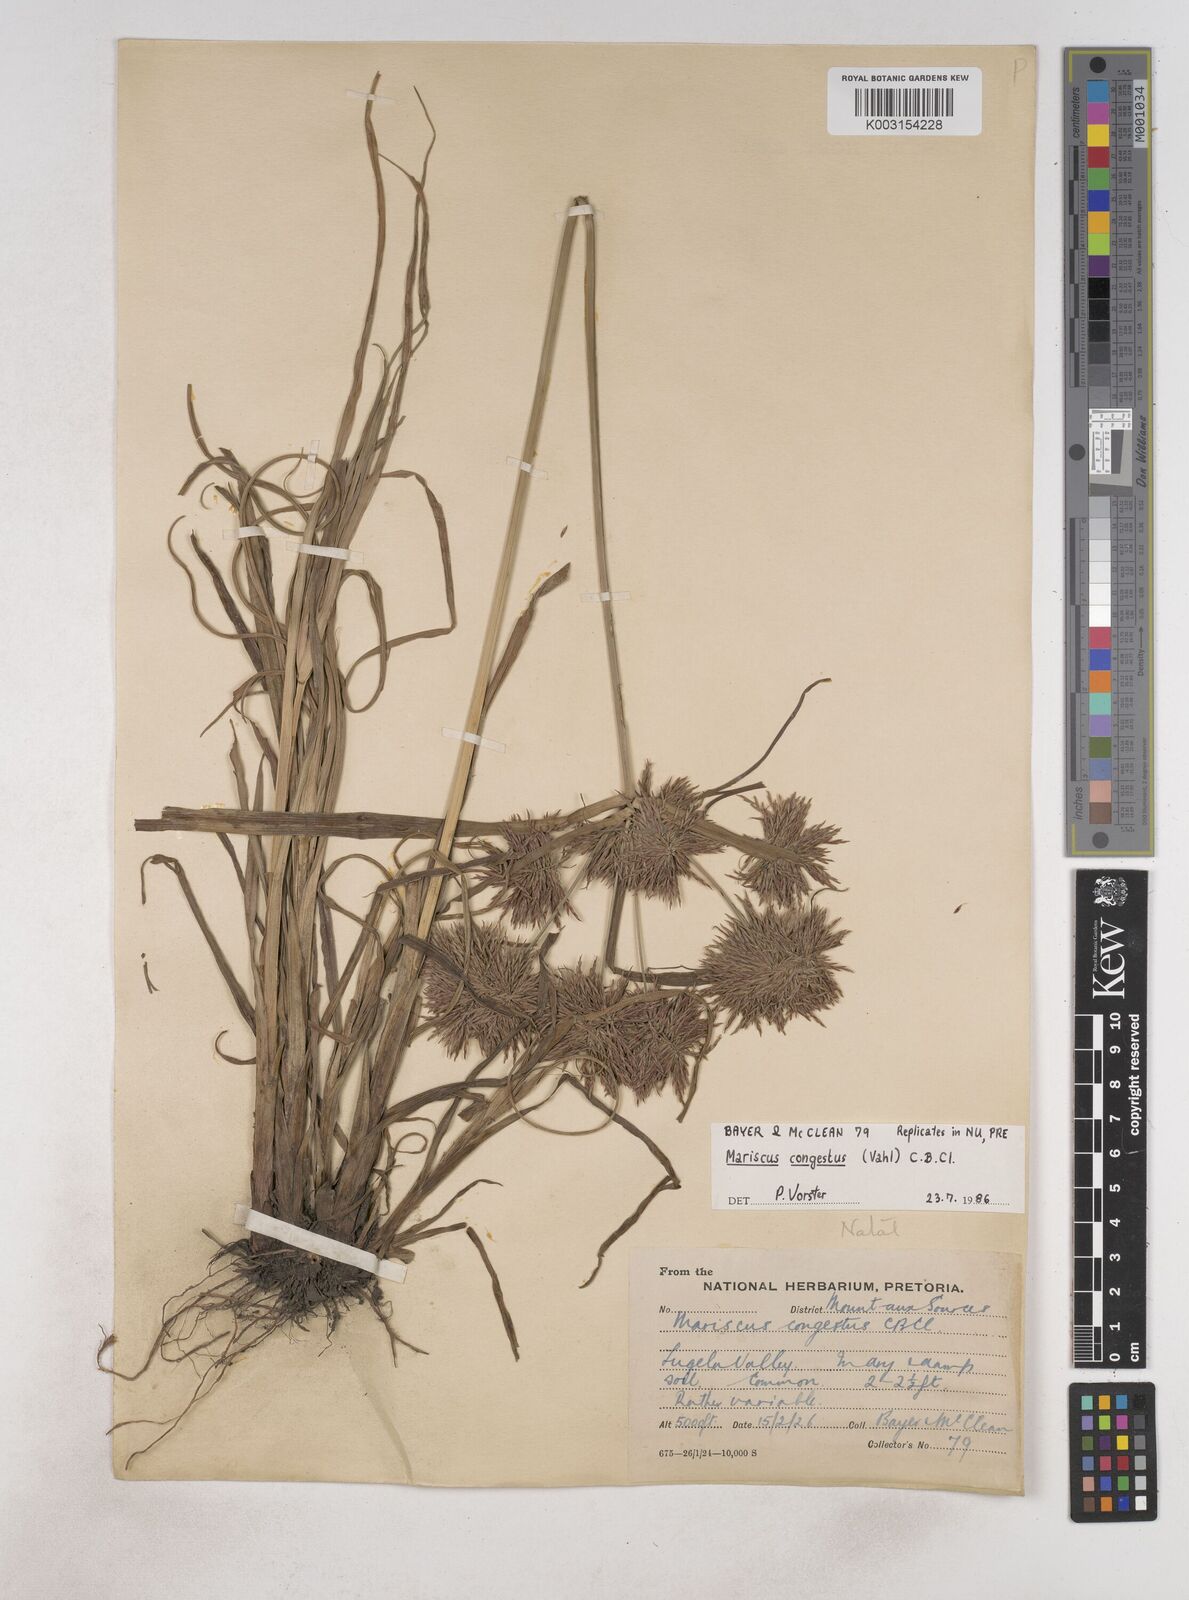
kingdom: Plantae
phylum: Tracheophyta
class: Liliopsida
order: Poales
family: Cyperaceae
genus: Cyperus
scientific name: Cyperus congestus
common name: Dense flat sedge
